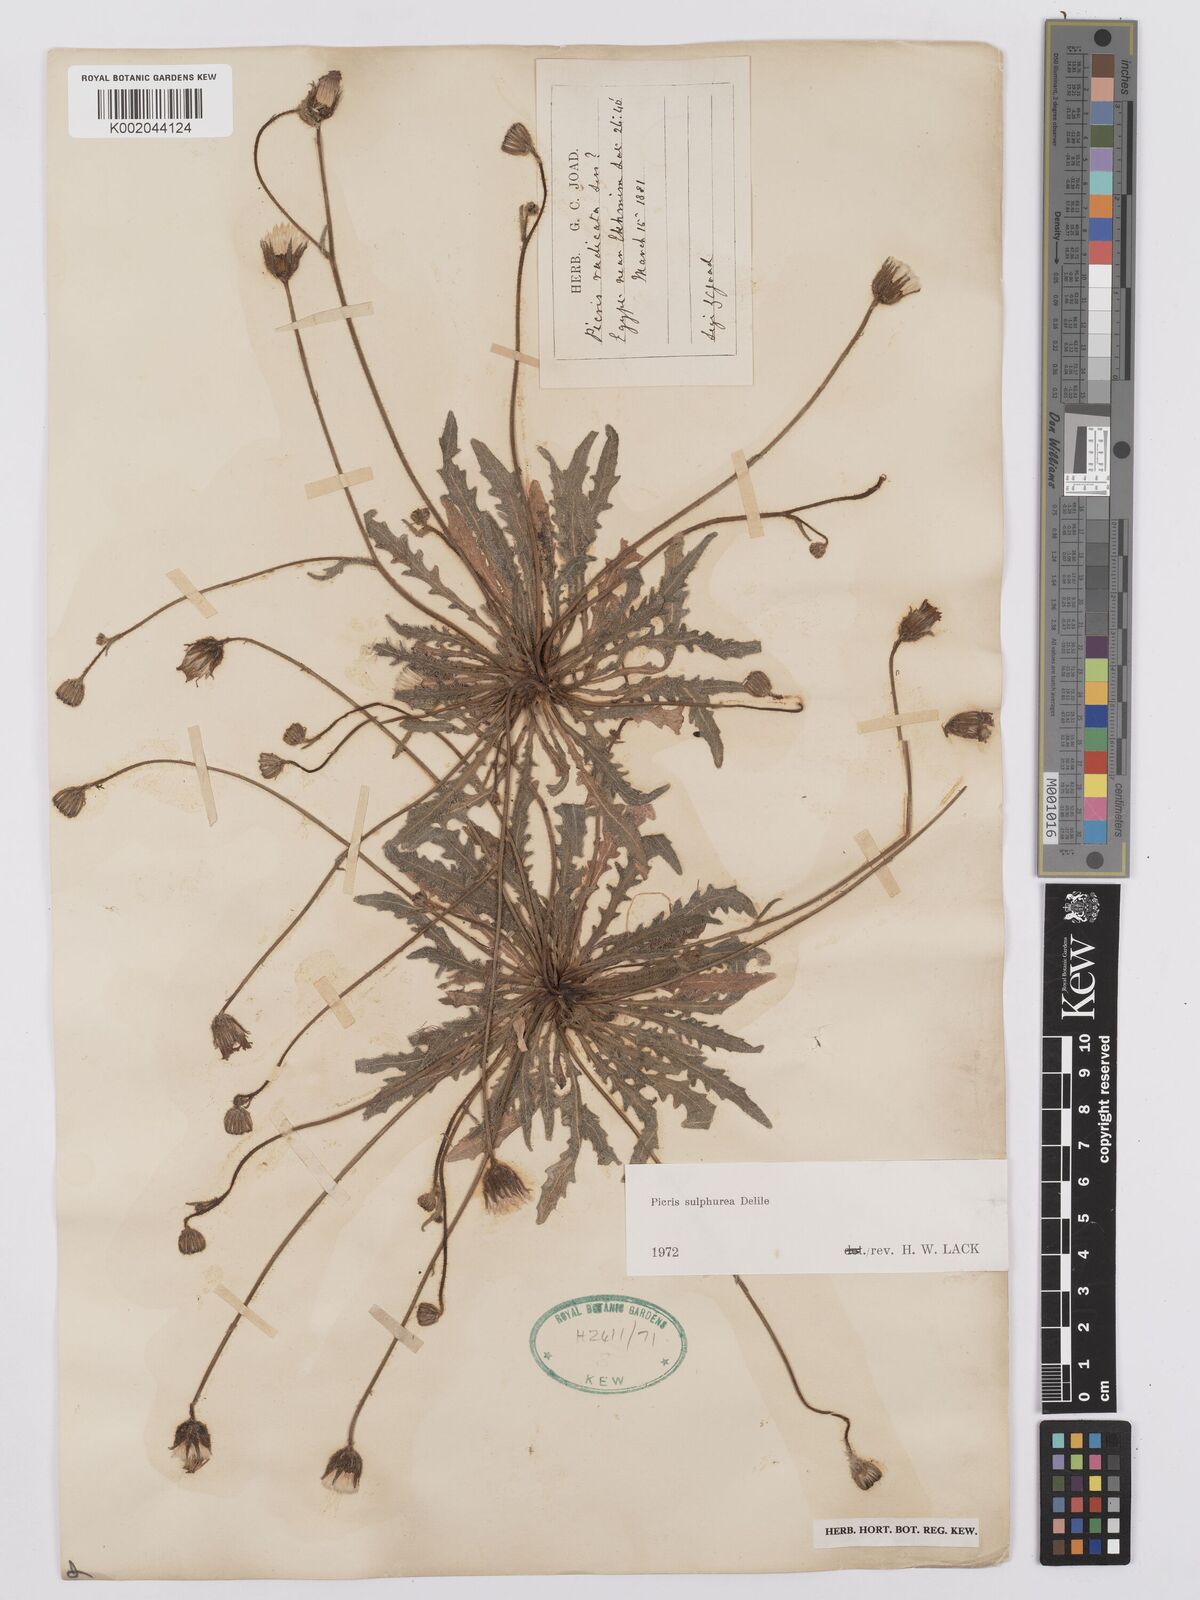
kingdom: Plantae
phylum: Tracheophyta
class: Magnoliopsida
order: Asterales
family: Asteraceae
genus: Picris
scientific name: Picris sulphurea
